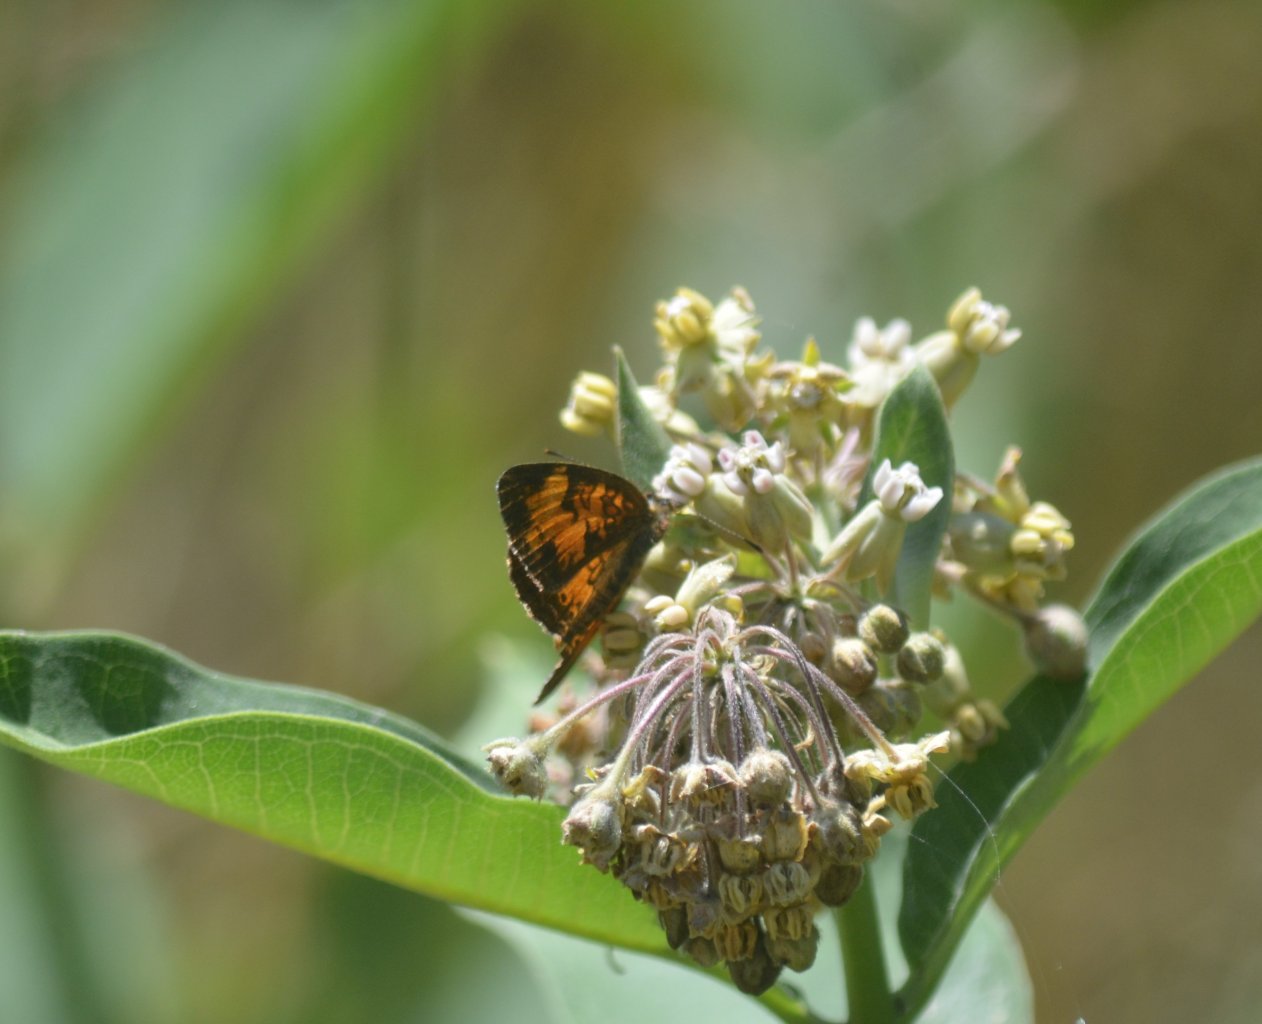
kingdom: Animalia
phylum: Arthropoda
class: Insecta
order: Lepidoptera
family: Nymphalidae
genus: Phyciodes
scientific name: Phyciodes tharos
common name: Northern Crescent
